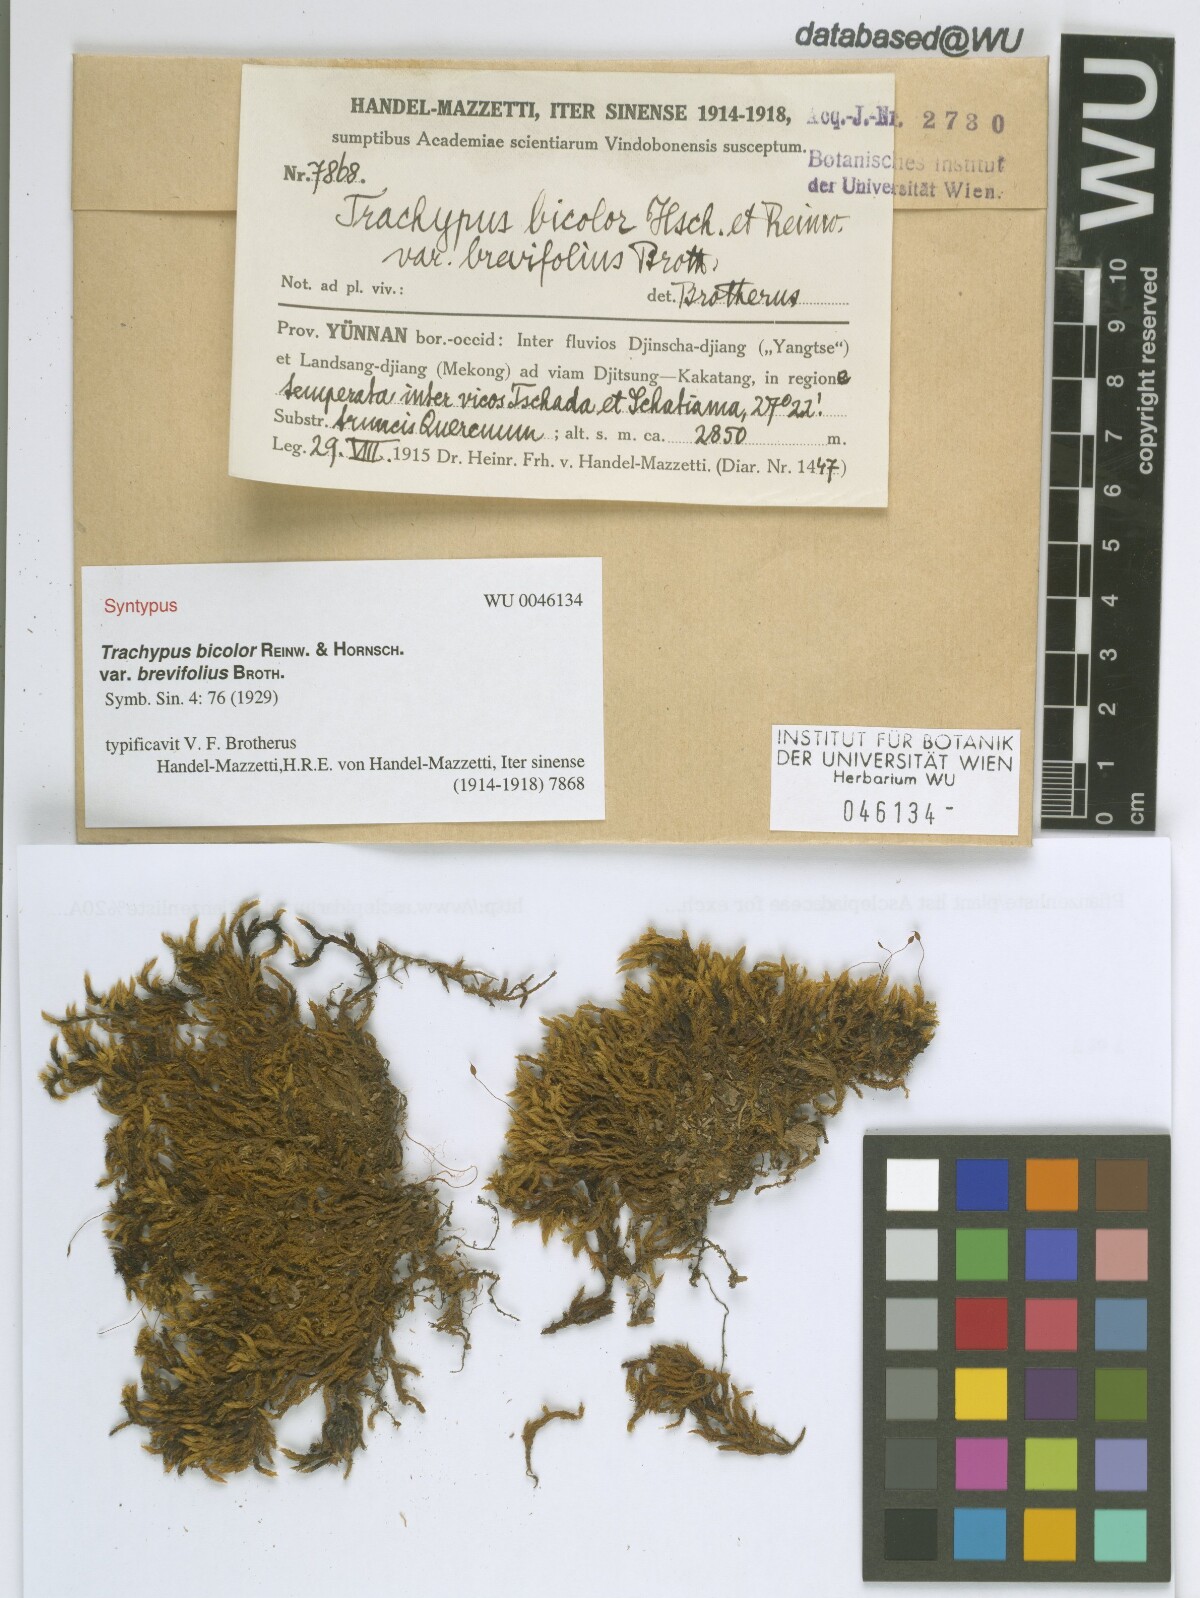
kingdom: Plantae
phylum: Bryophyta
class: Bryopsida
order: Hypnales
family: Meteoriaceae
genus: Trachypus
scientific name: Trachypus bicolor
